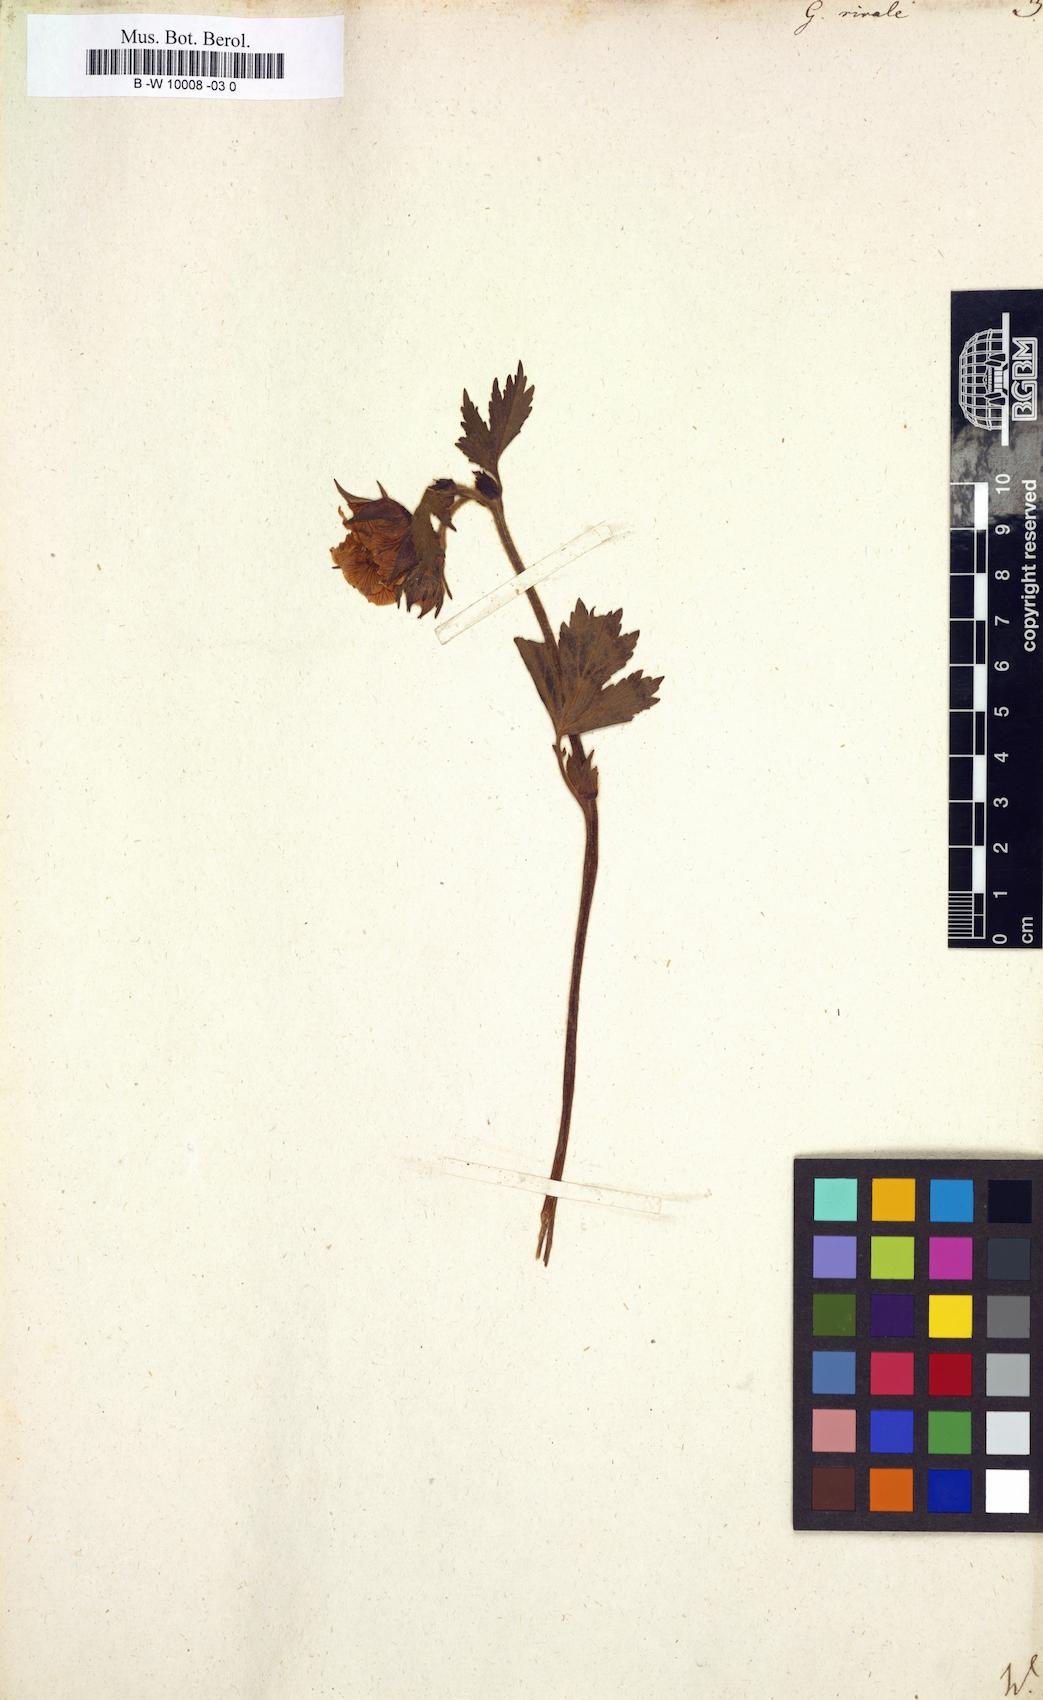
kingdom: Plantae
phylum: Tracheophyta
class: Magnoliopsida
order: Rosales
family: Rosaceae
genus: Geum
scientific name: Geum rivale
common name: Water avens
